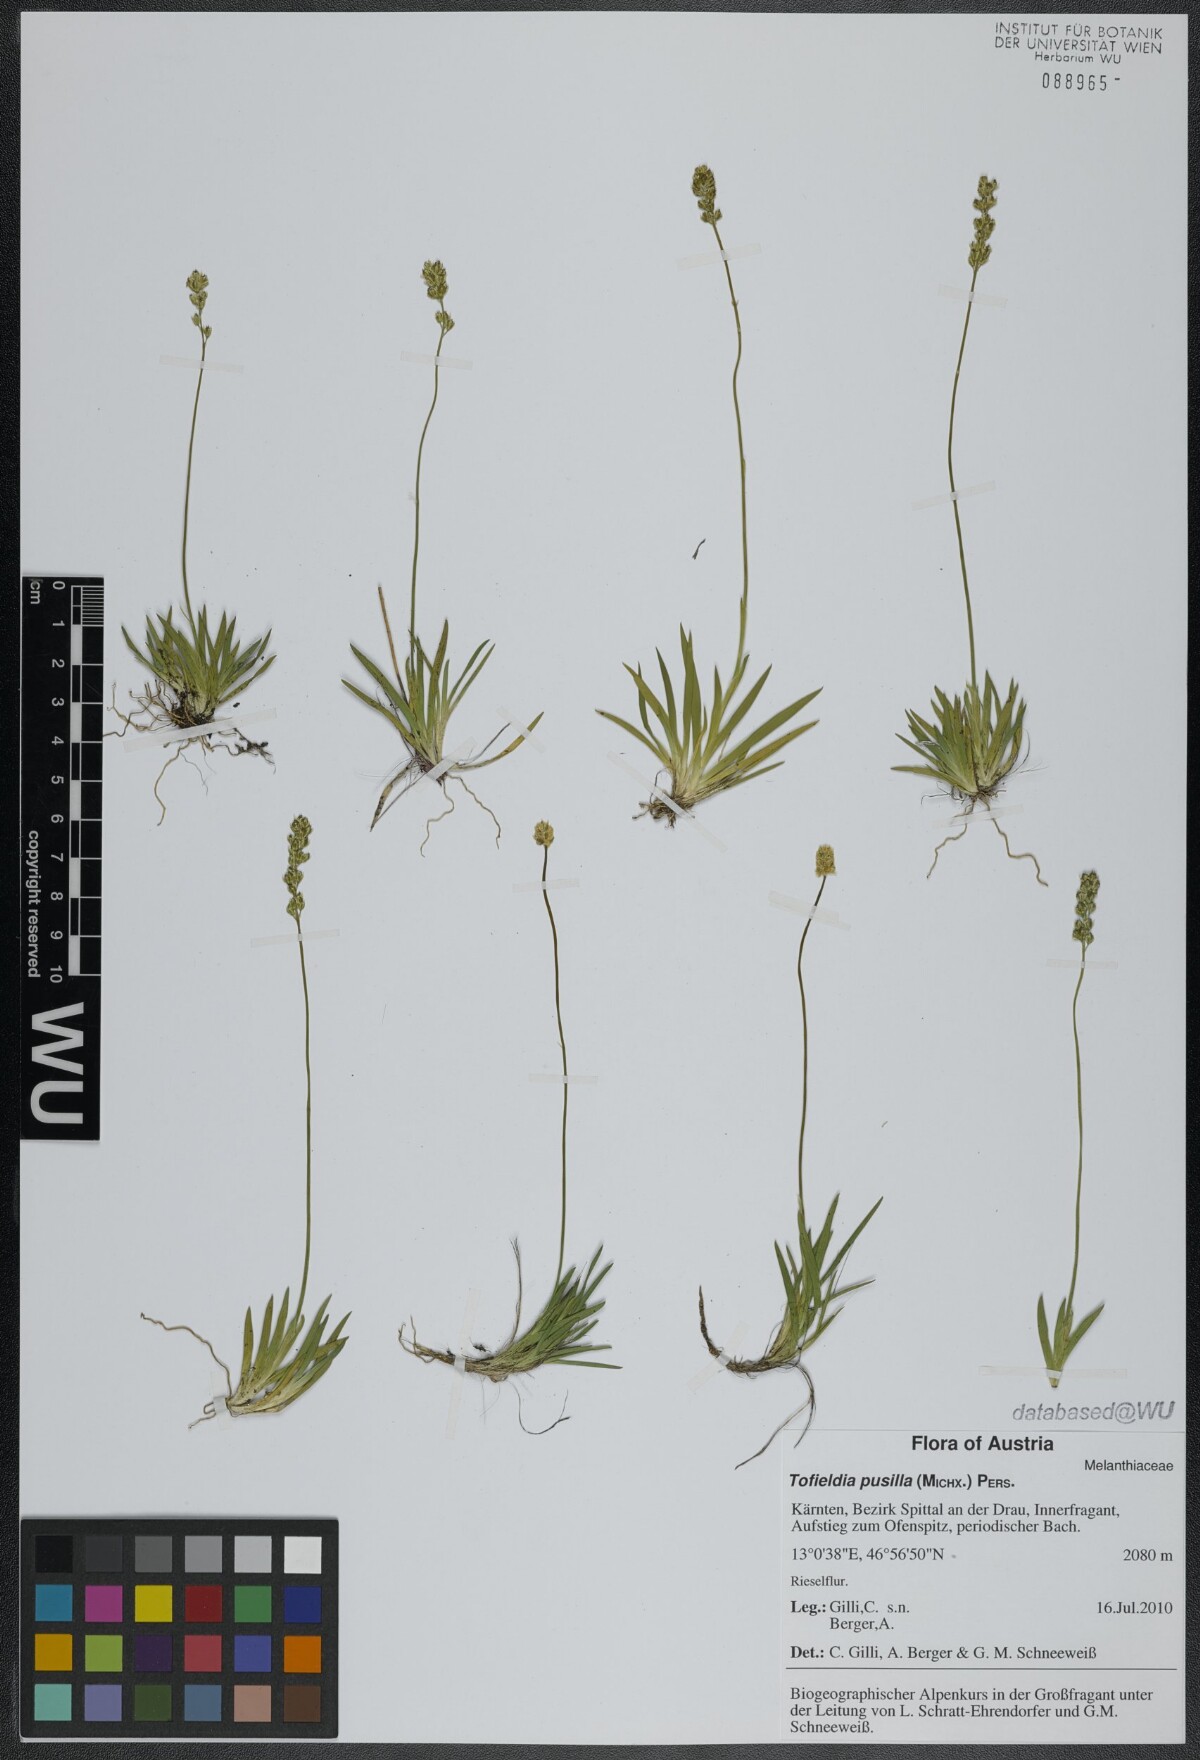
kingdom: Plantae
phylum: Tracheophyta
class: Liliopsida
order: Alismatales
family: Tofieldiaceae
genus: Tofieldia
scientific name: Tofieldia pusilla
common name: Scottish false asphodel
